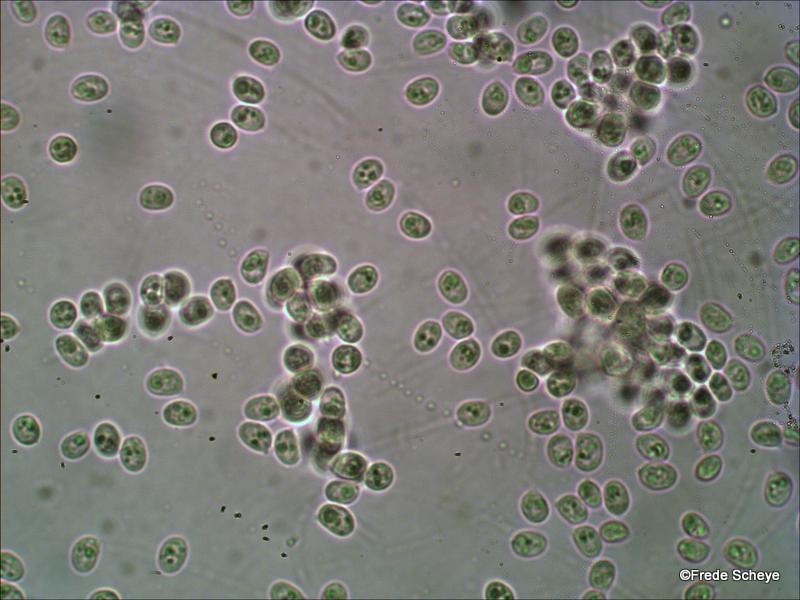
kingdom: Fungi
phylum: Basidiomycota
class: Agaricomycetes
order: Hymenochaetales
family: Schizoporaceae
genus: Schizopora
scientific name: Schizopora paradoxa
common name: hvid tandsvamp
